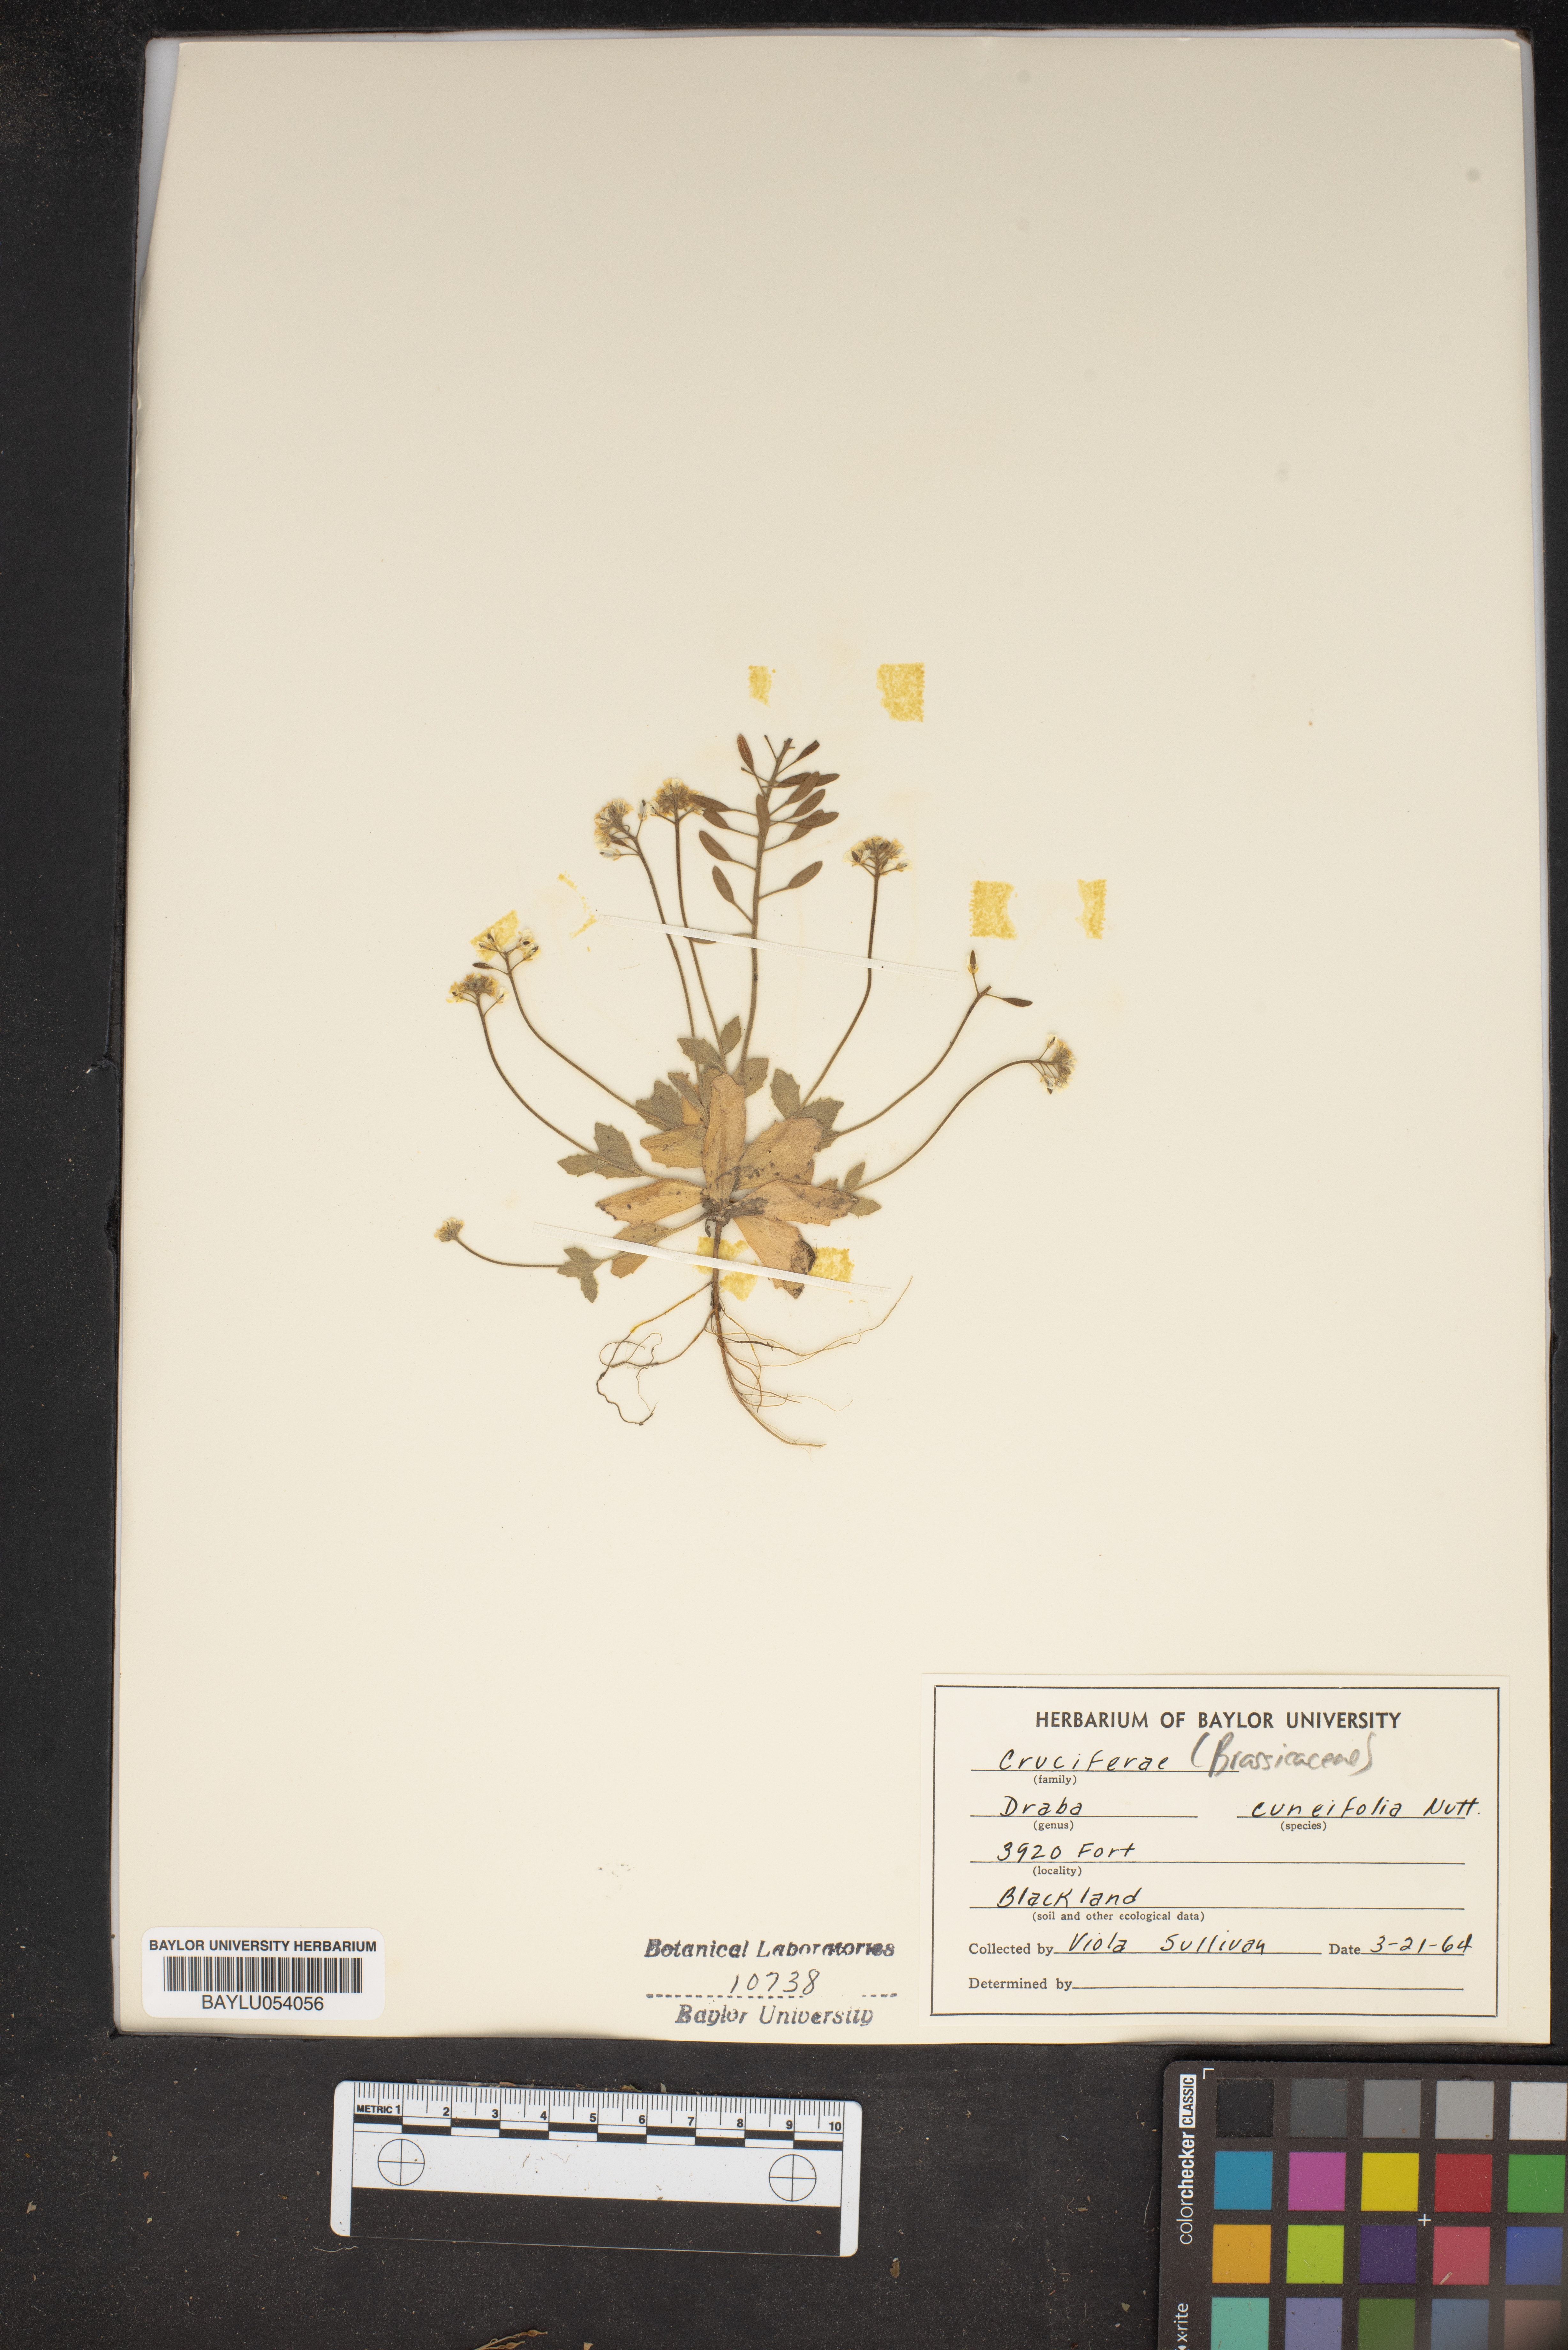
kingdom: Plantae
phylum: Tracheophyta
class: Magnoliopsida
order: Brassicales
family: Brassicaceae
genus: Tomostima
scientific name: Tomostima cuneifolia
